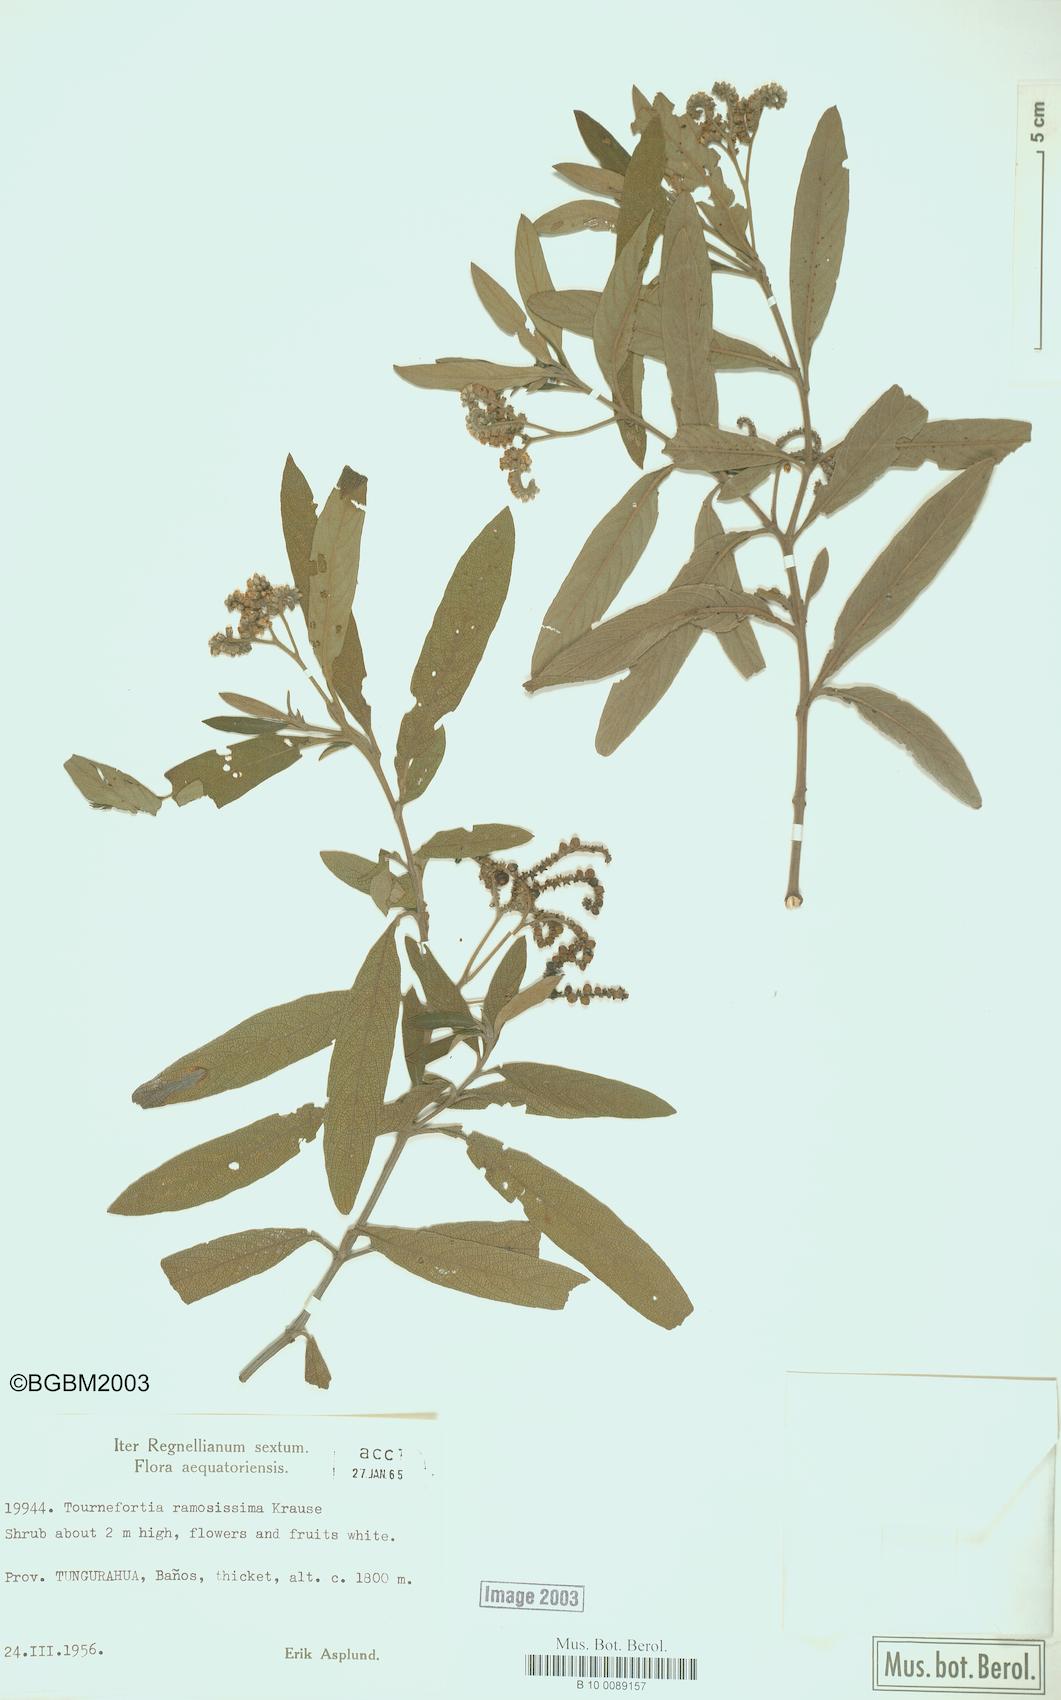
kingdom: Plantae
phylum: Tracheophyta
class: Magnoliopsida
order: Boraginales
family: Heliotropiaceae
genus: Tournefortia
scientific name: Tournefortia ramosissima
